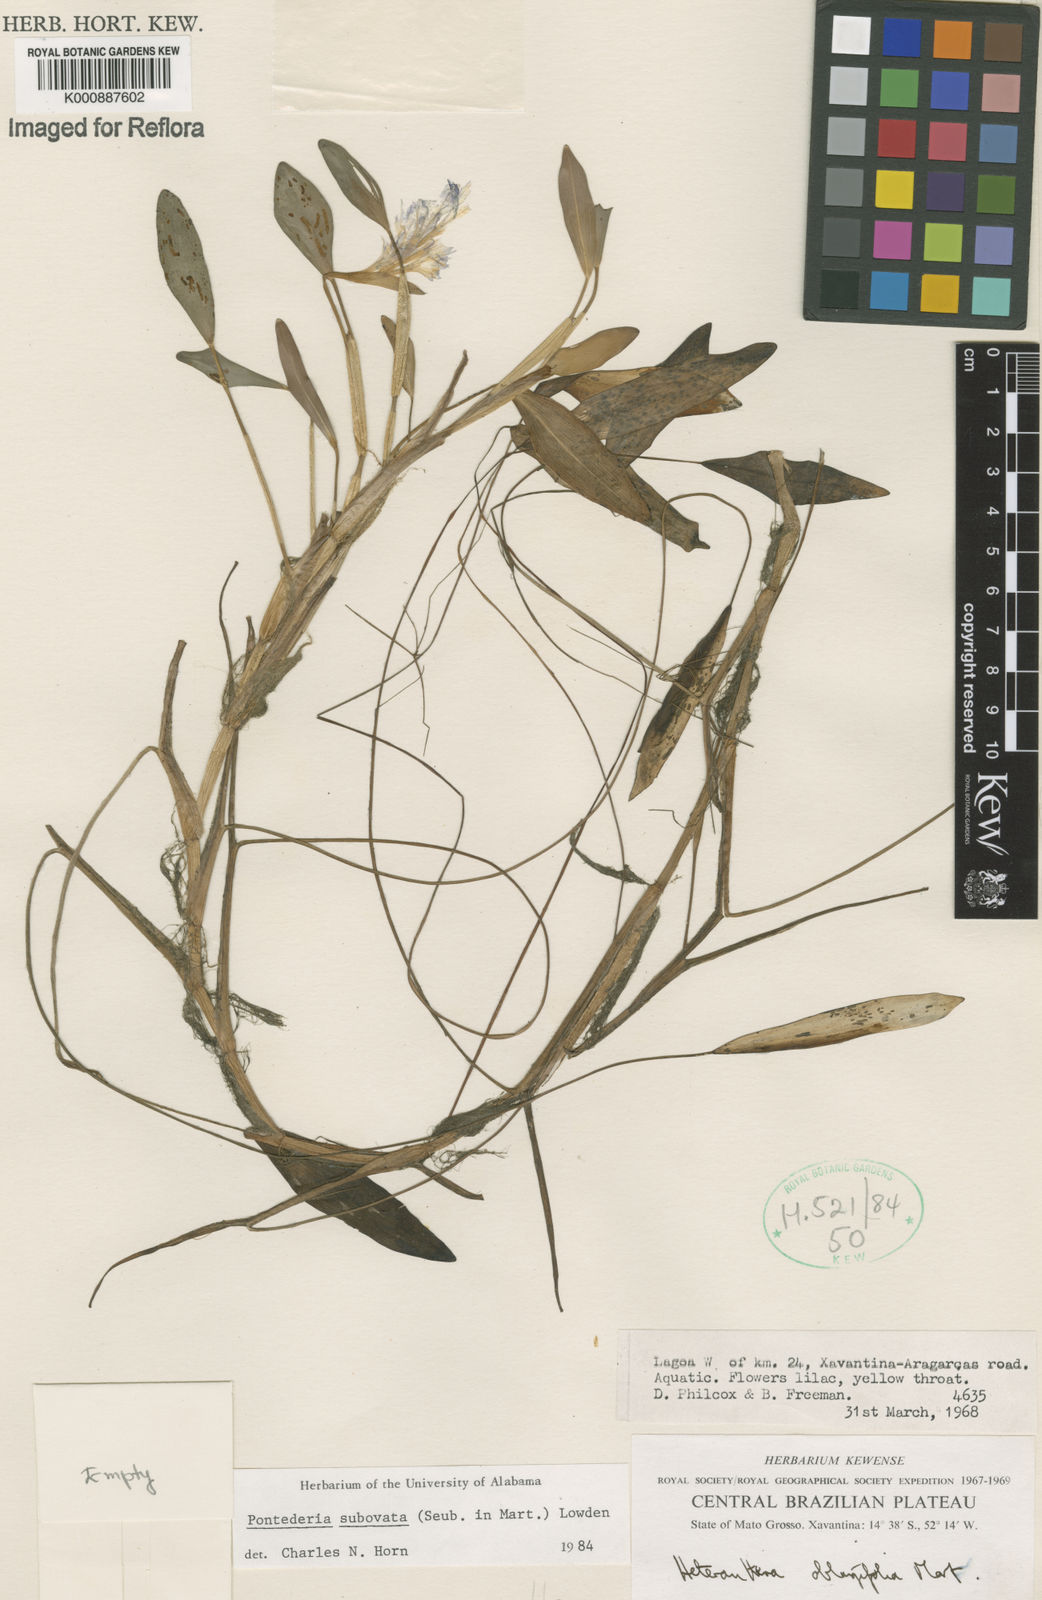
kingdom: Plantae
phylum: Tracheophyta
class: Liliopsida
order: Commelinales
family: Pontederiaceae
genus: Pontederia
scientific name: Pontederia subovata
